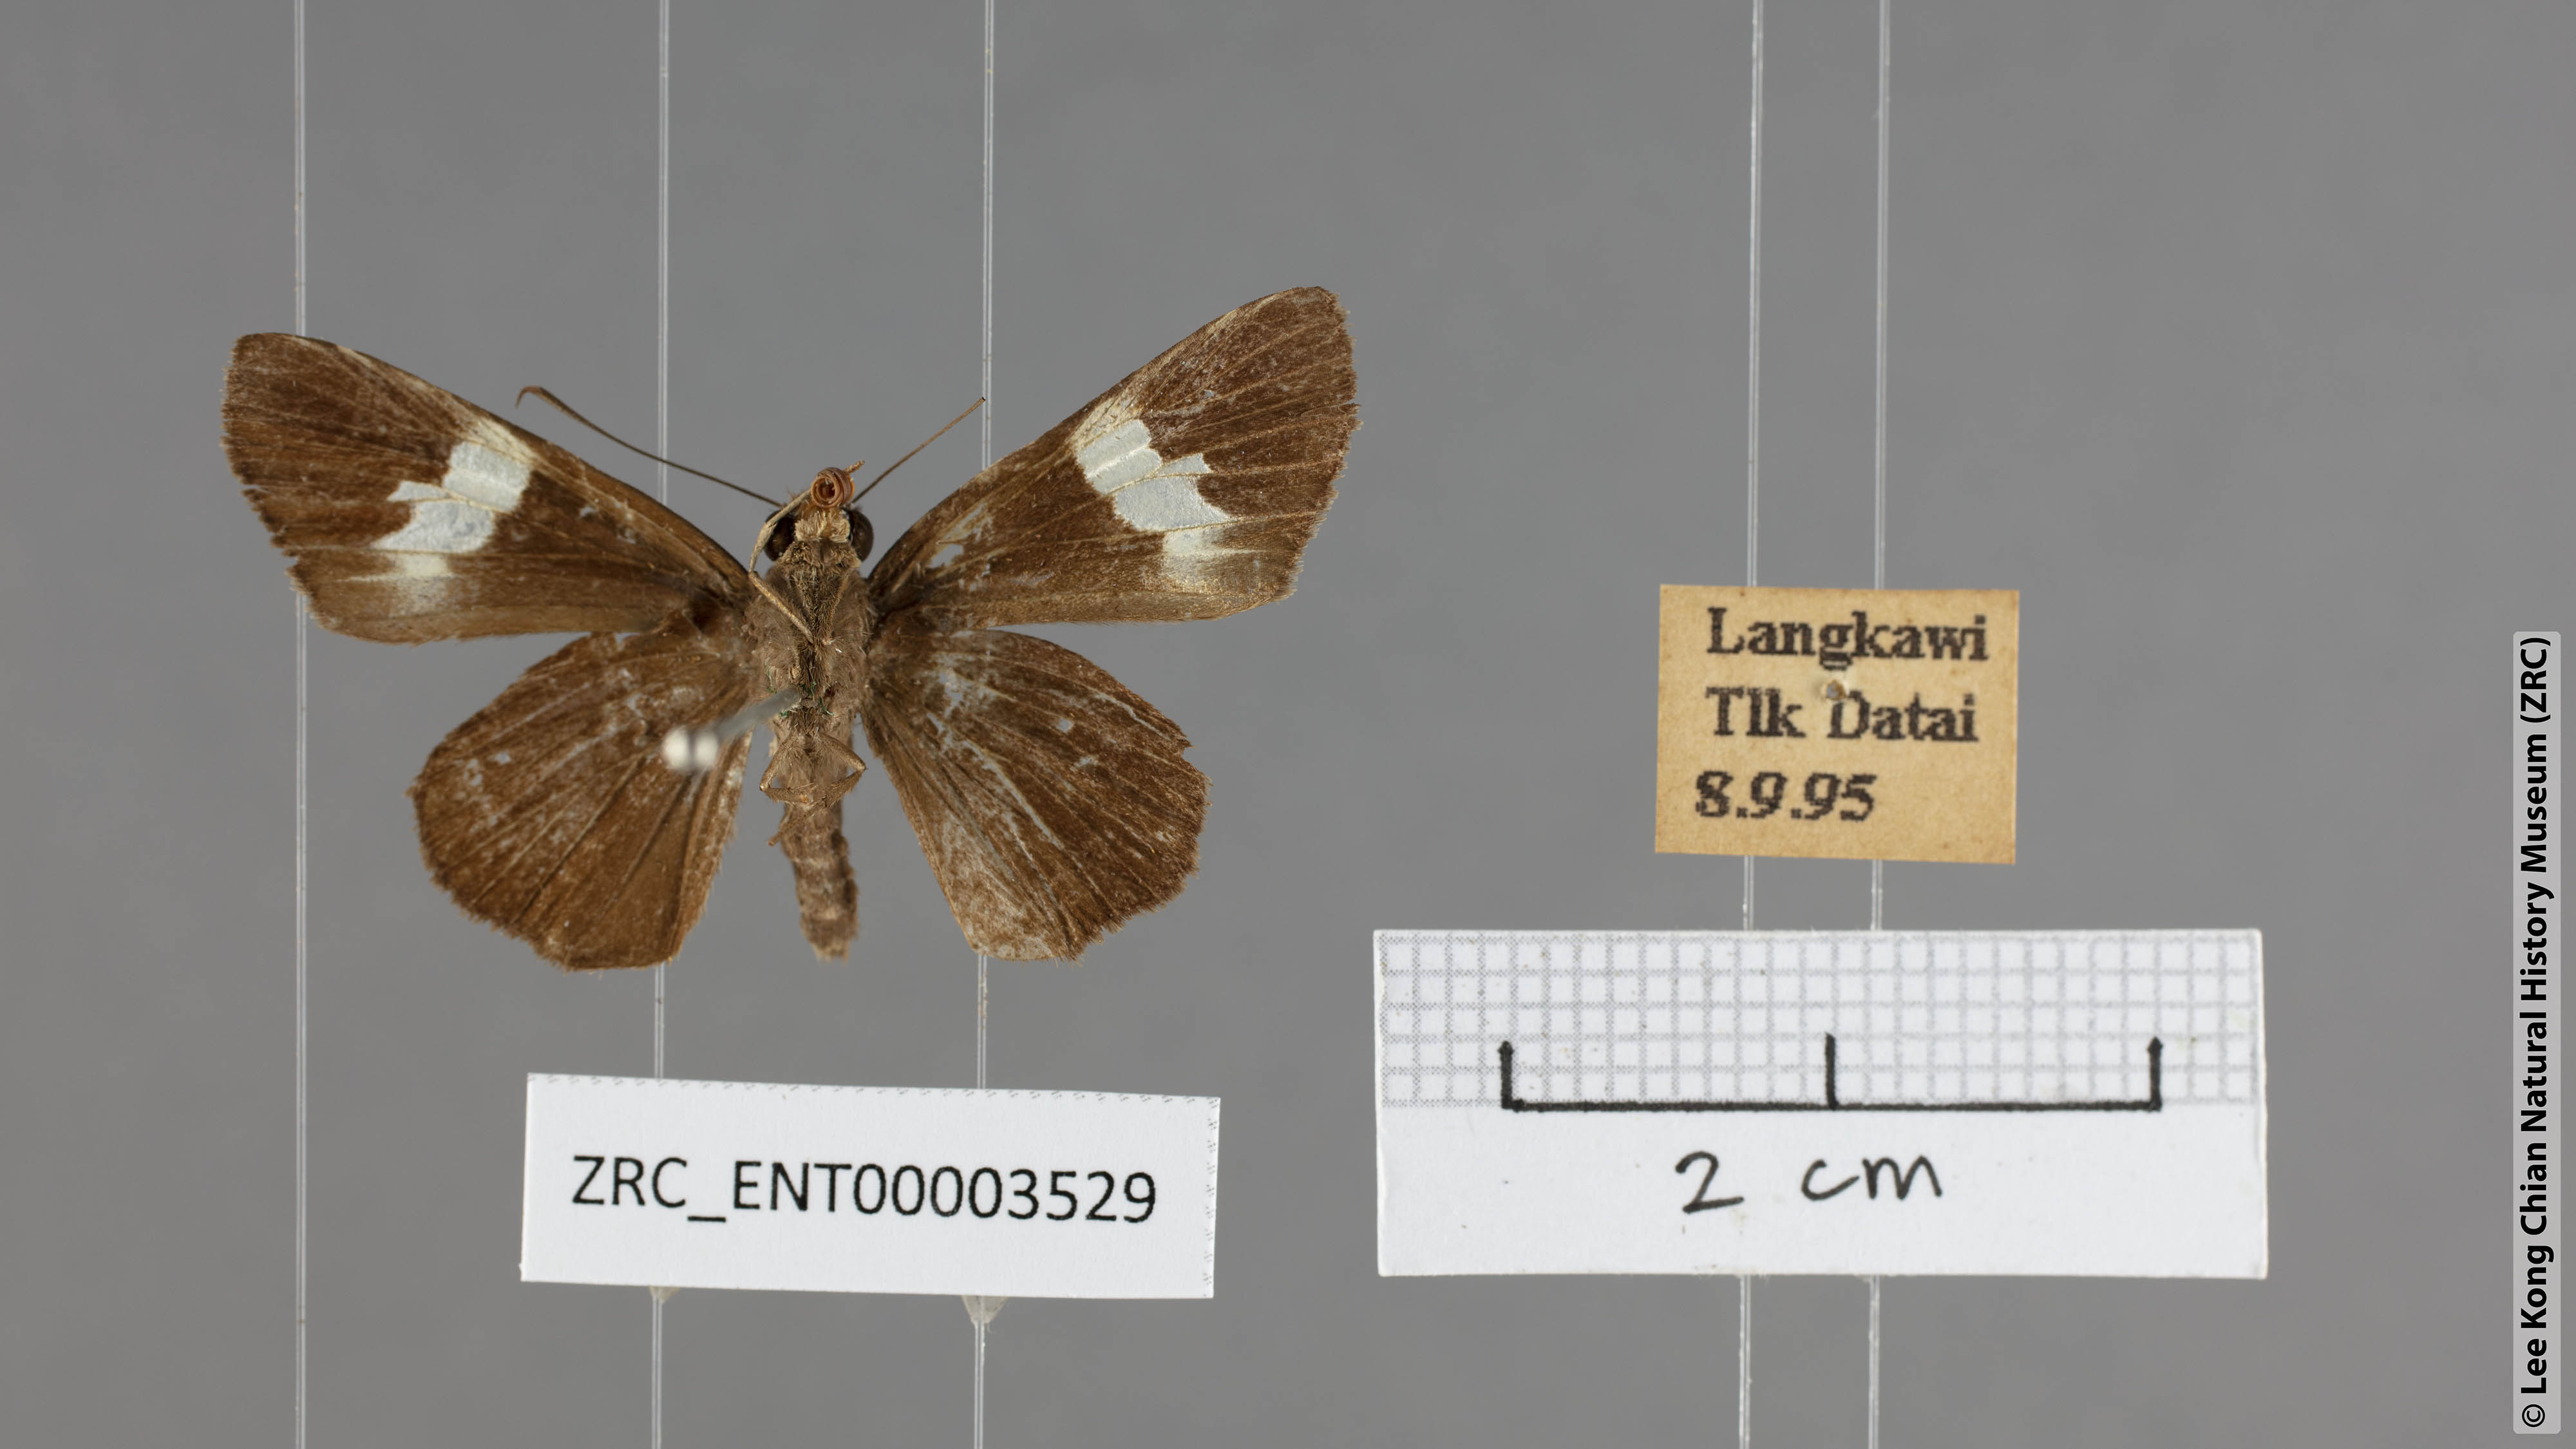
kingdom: Animalia
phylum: Arthropoda
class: Insecta
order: Lepidoptera
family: Hesperiidae
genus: Quedara
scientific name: Quedara monteithi
